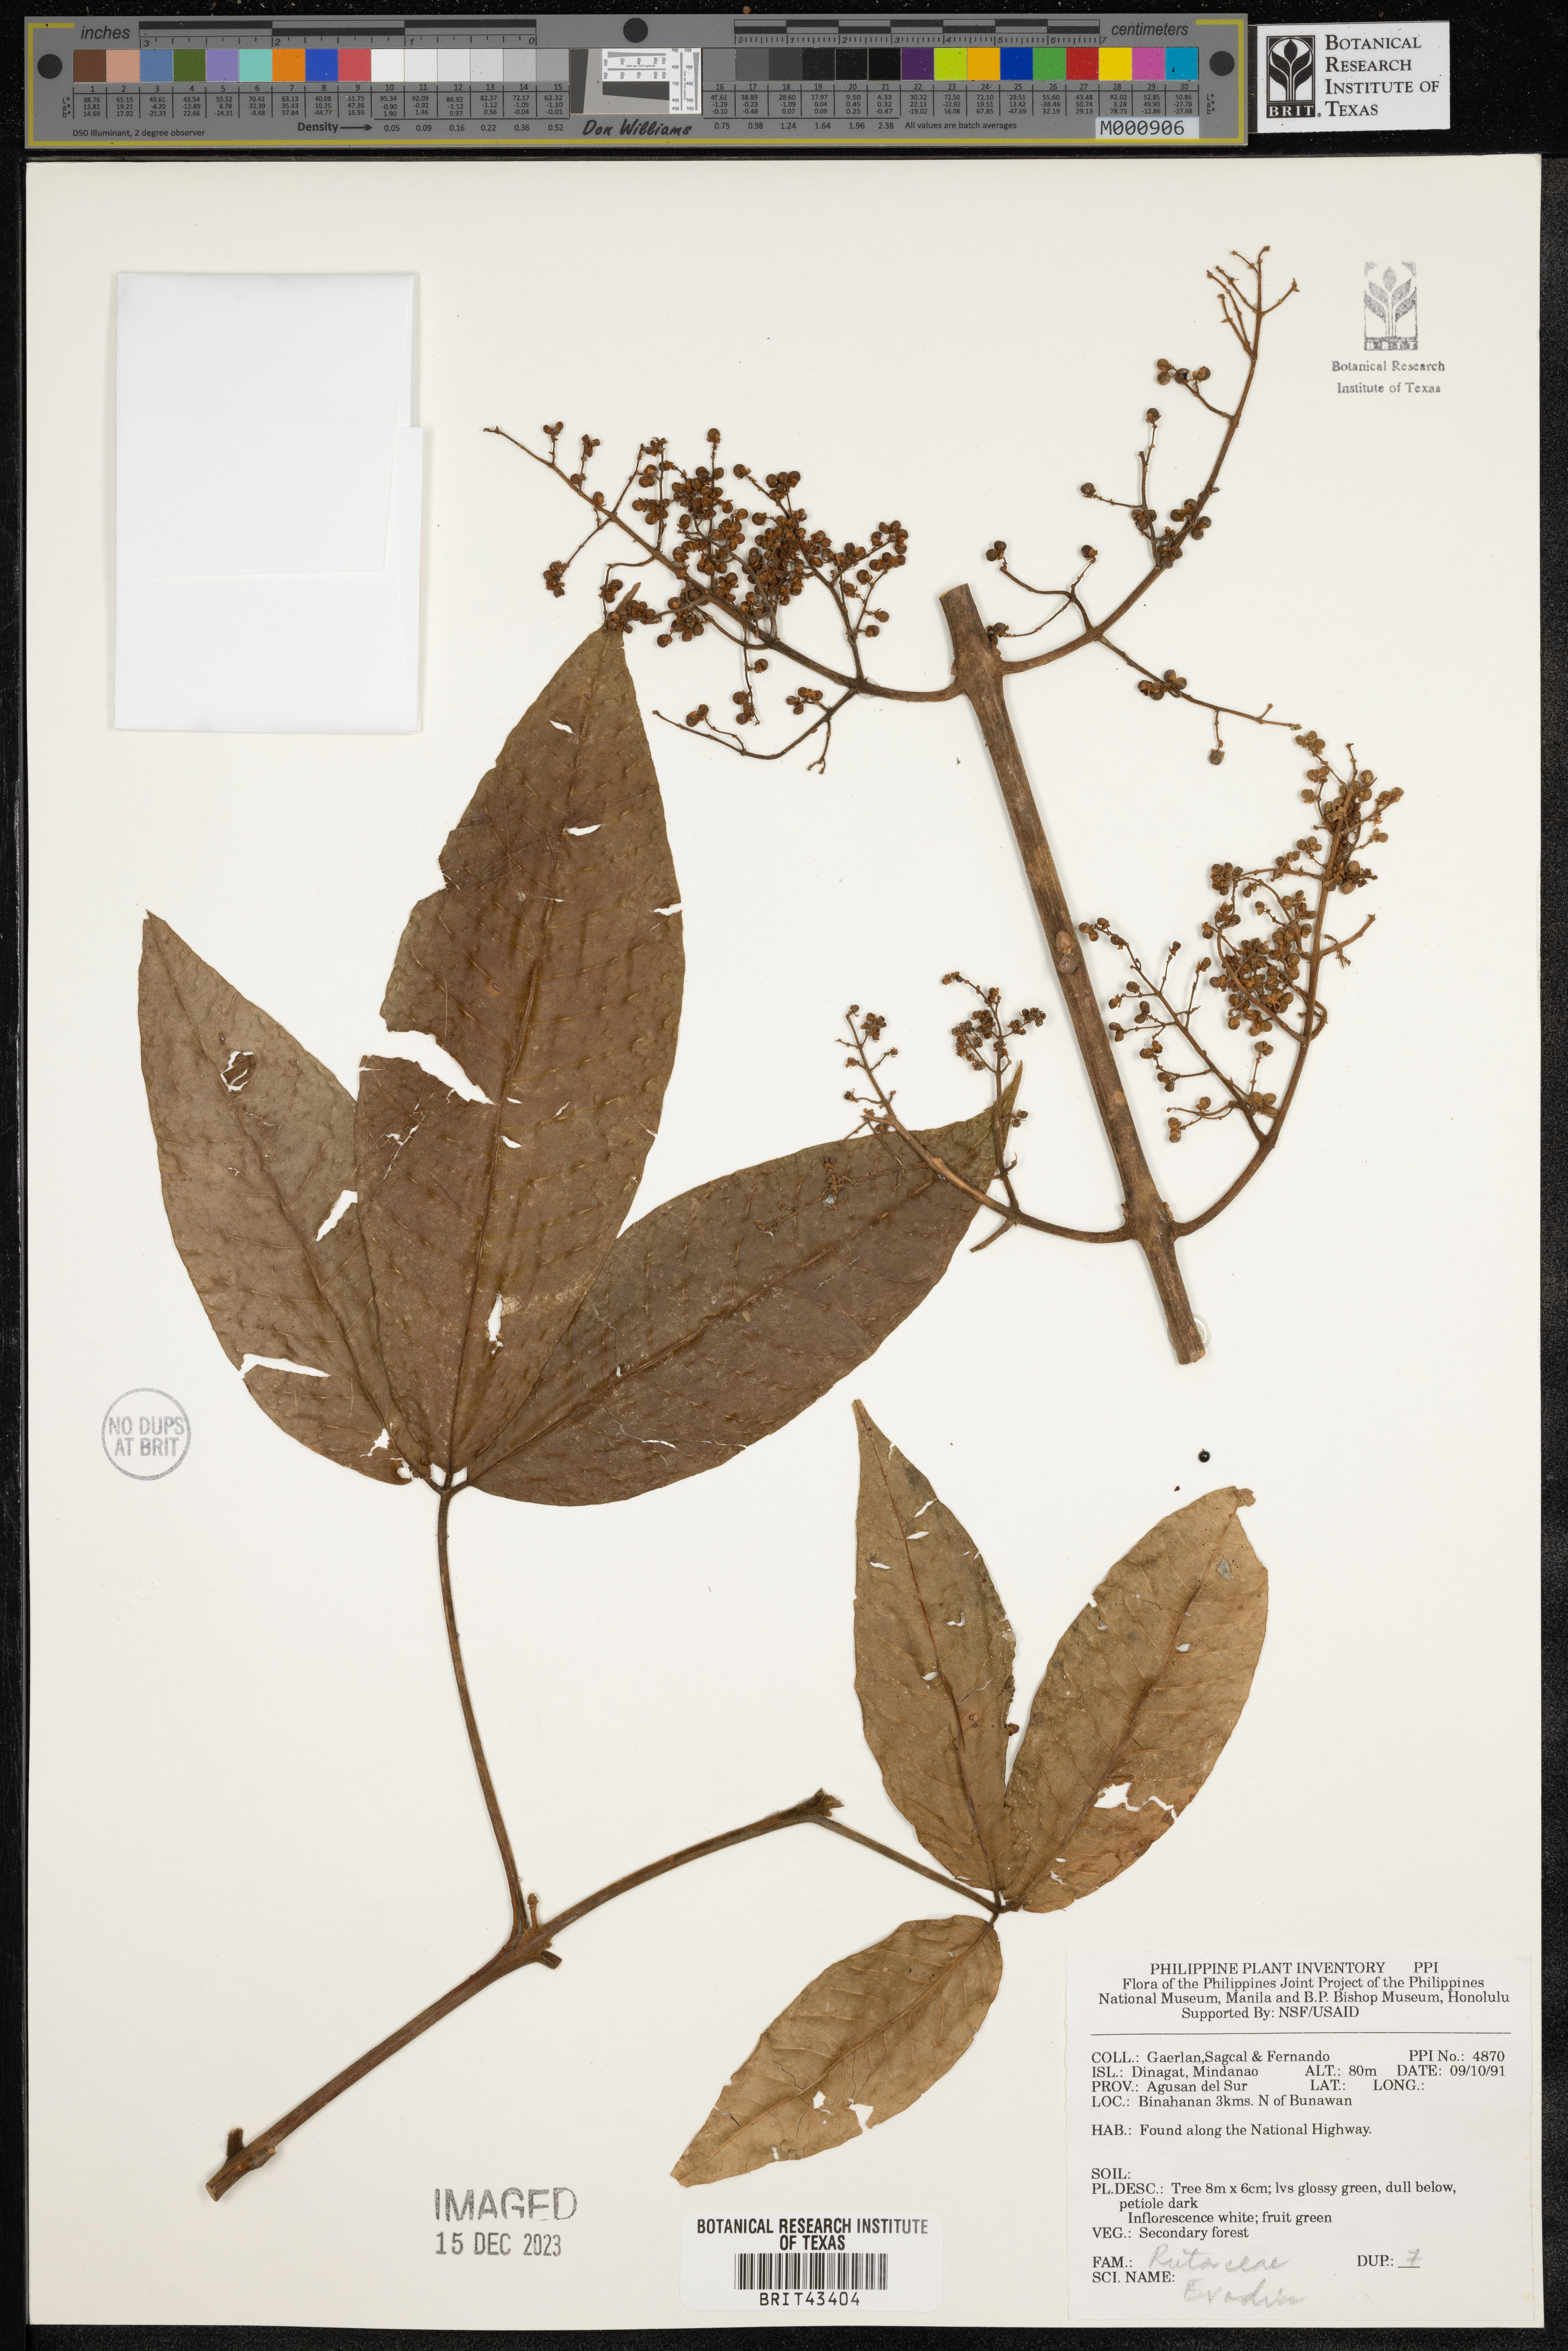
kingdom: Plantae
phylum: Tracheophyta
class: Magnoliopsida
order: Sapindales
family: Rutaceae
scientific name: Rutaceae
